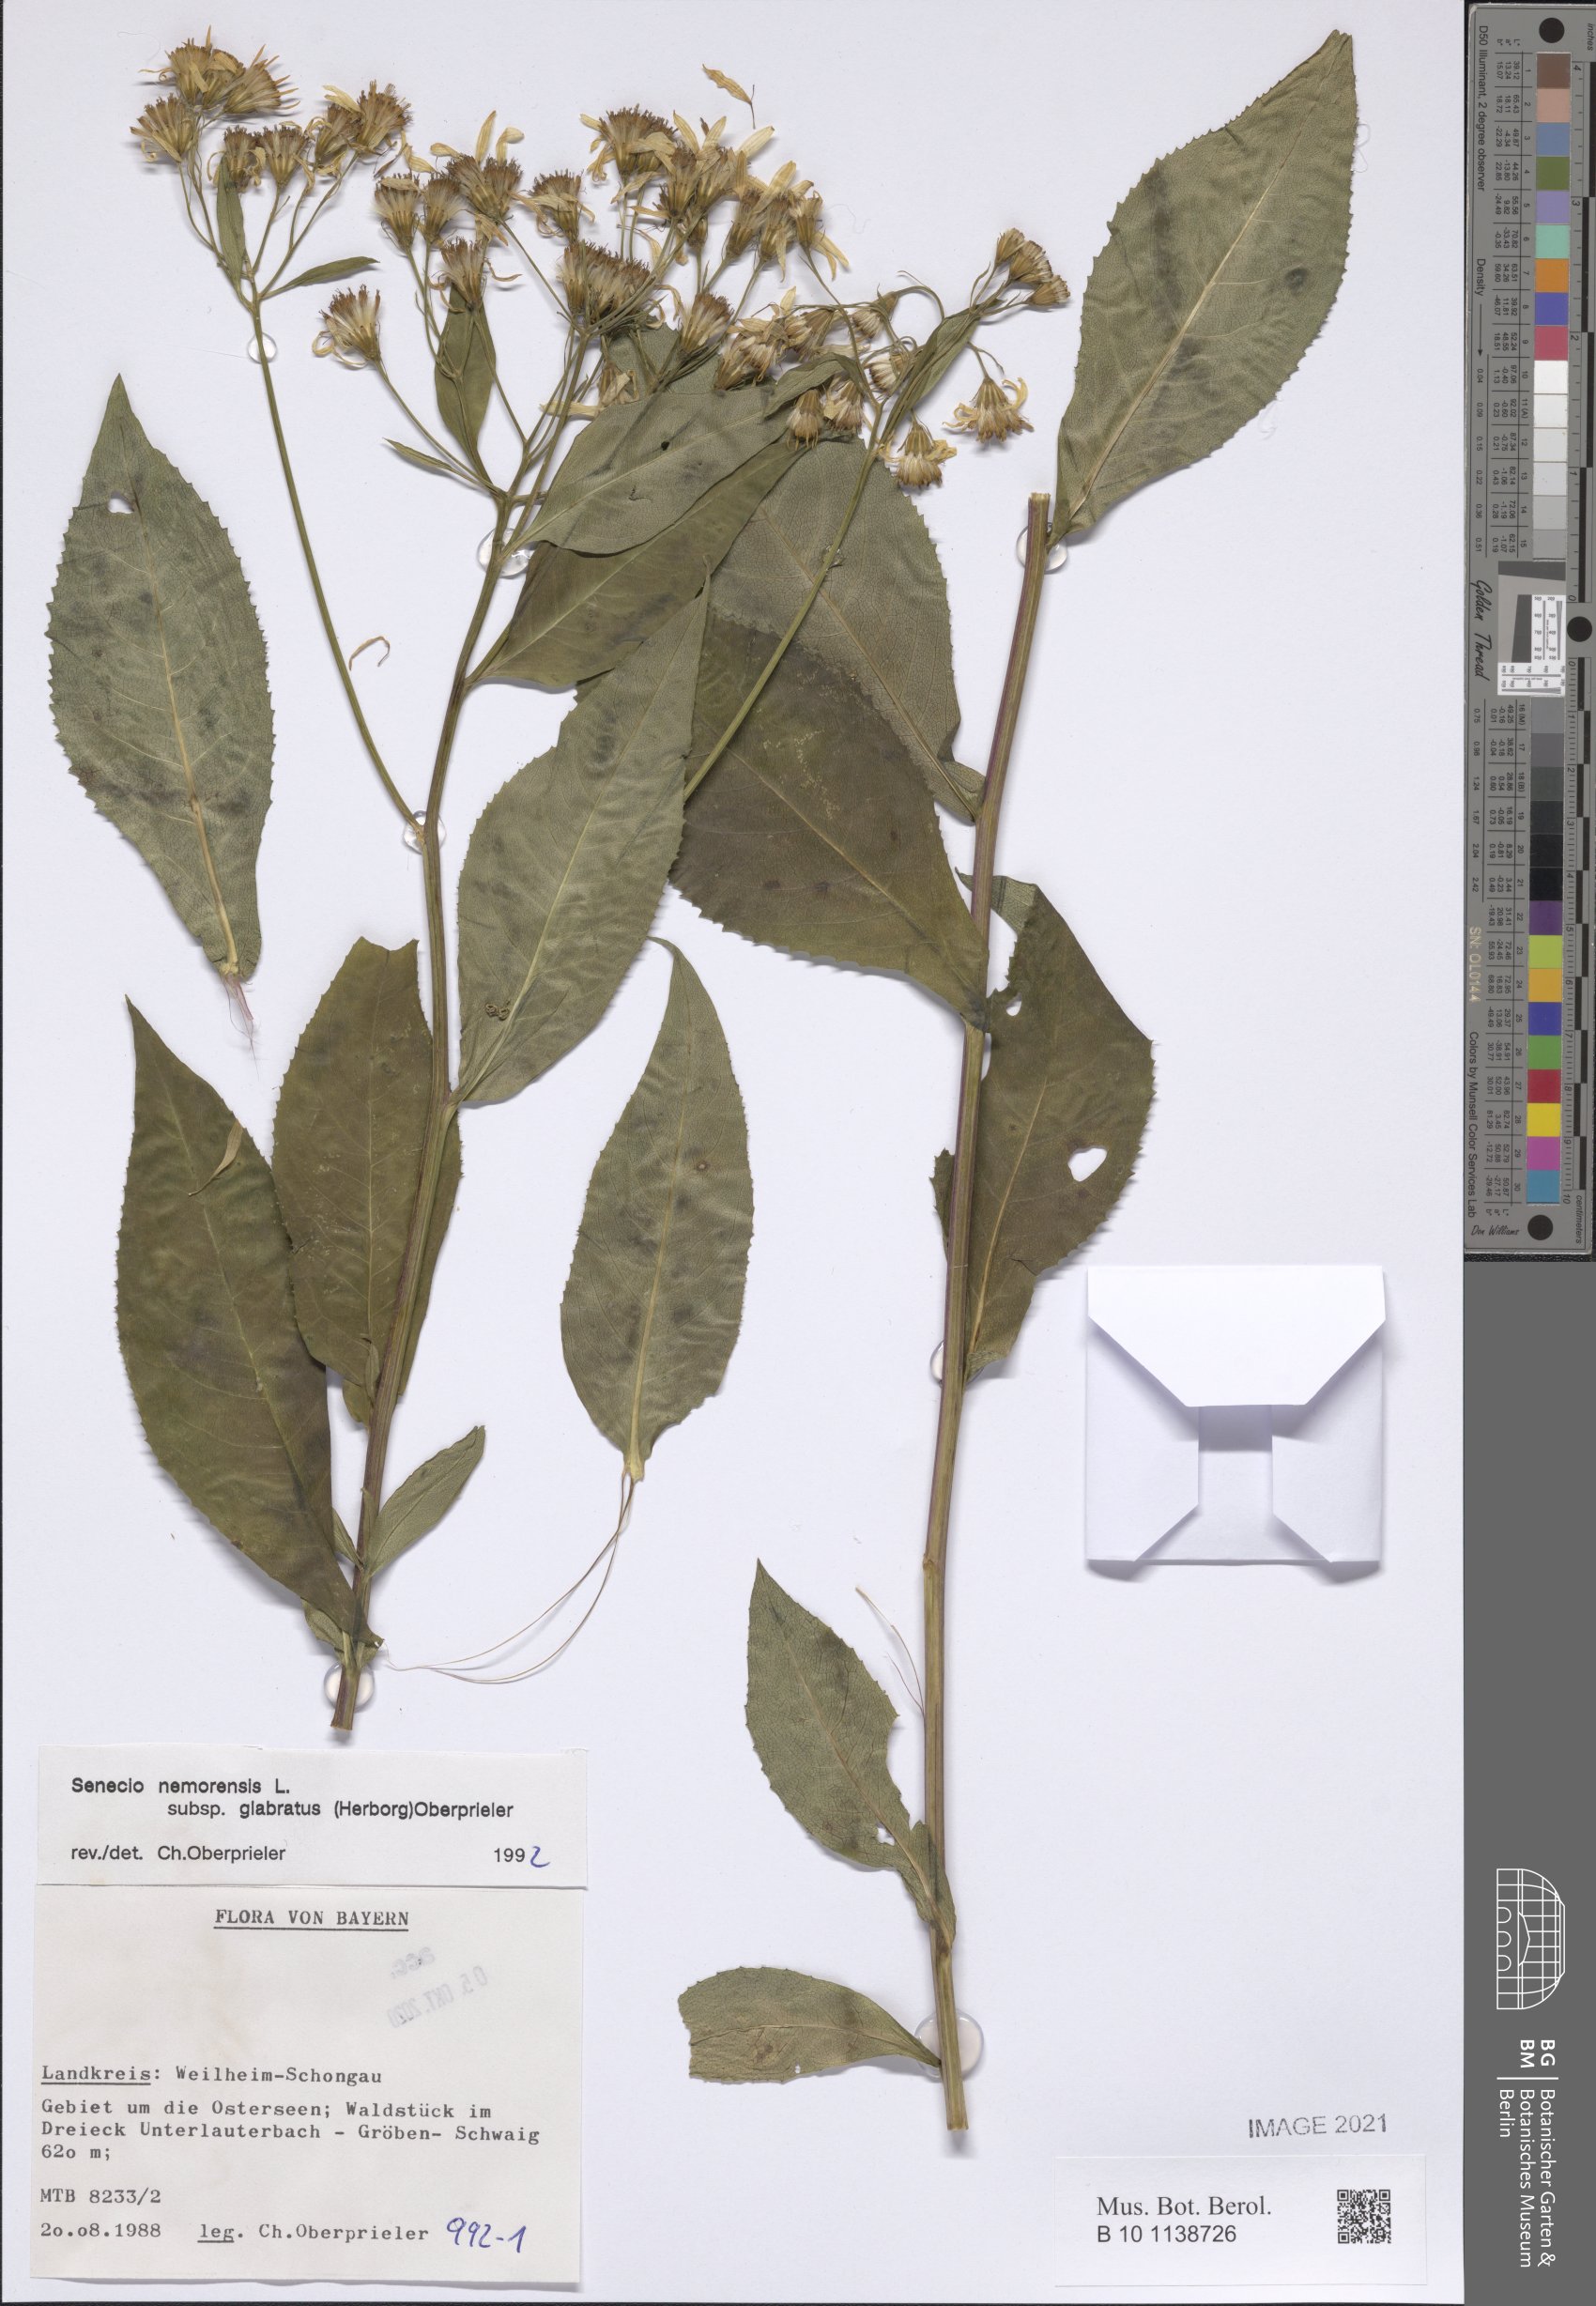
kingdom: Plantae
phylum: Tracheophyta
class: Magnoliopsida
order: Asterales
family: Asteraceae
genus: Senecio
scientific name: Senecio germanicus
